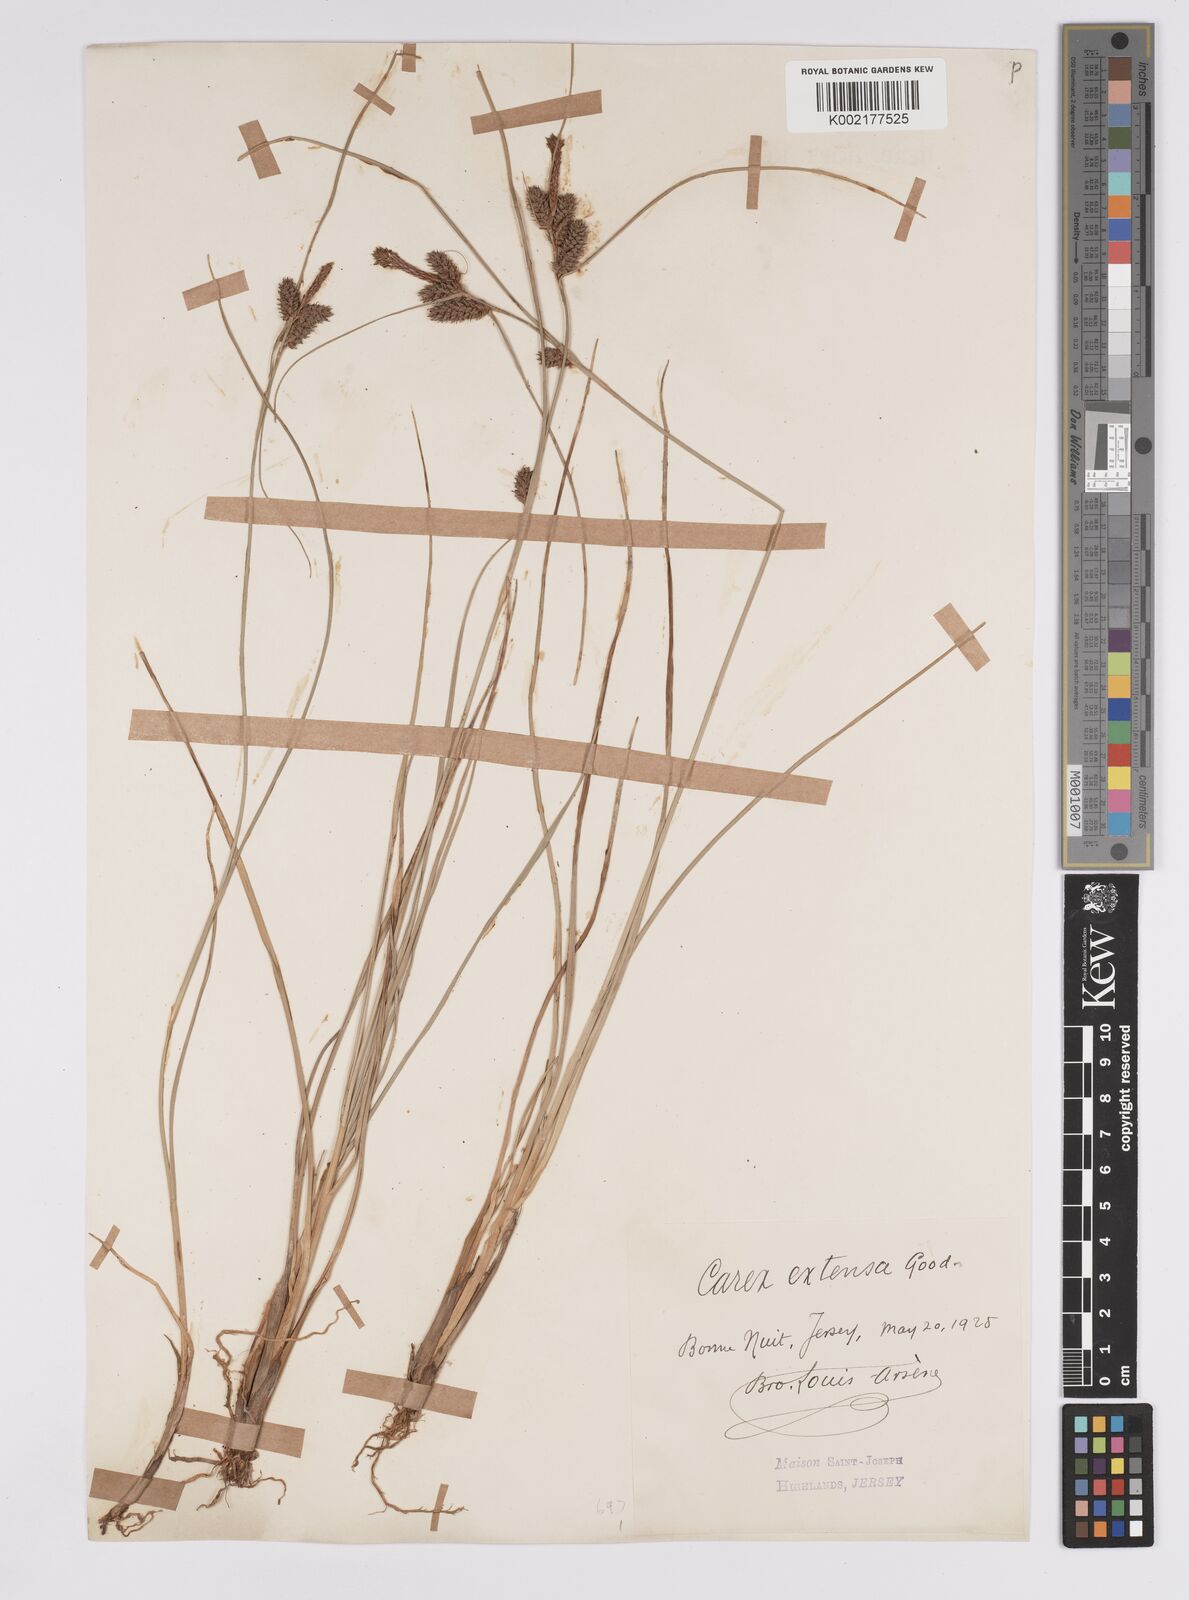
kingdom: Plantae
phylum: Tracheophyta
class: Liliopsida
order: Poales
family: Cyperaceae
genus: Carex
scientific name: Carex extensa
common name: Long-bracted sedge
